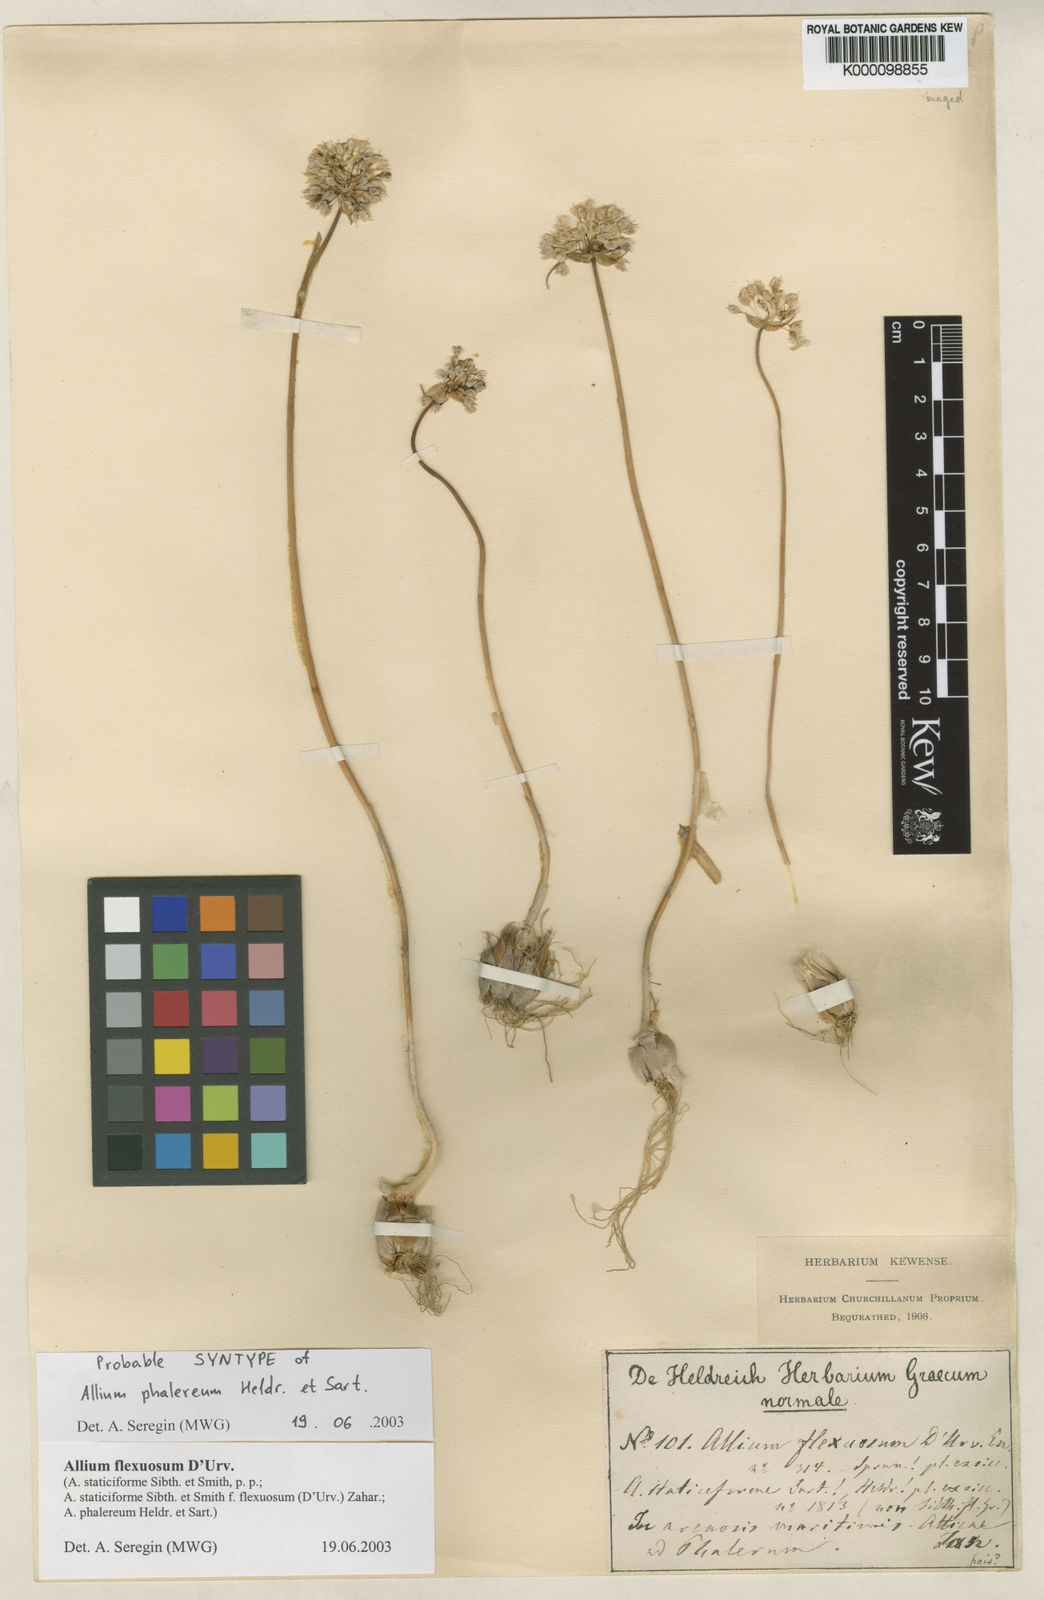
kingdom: Plantae
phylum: Tracheophyta
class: Liliopsida
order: Asparagales
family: Amaryllidaceae
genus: Allium
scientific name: Allium
